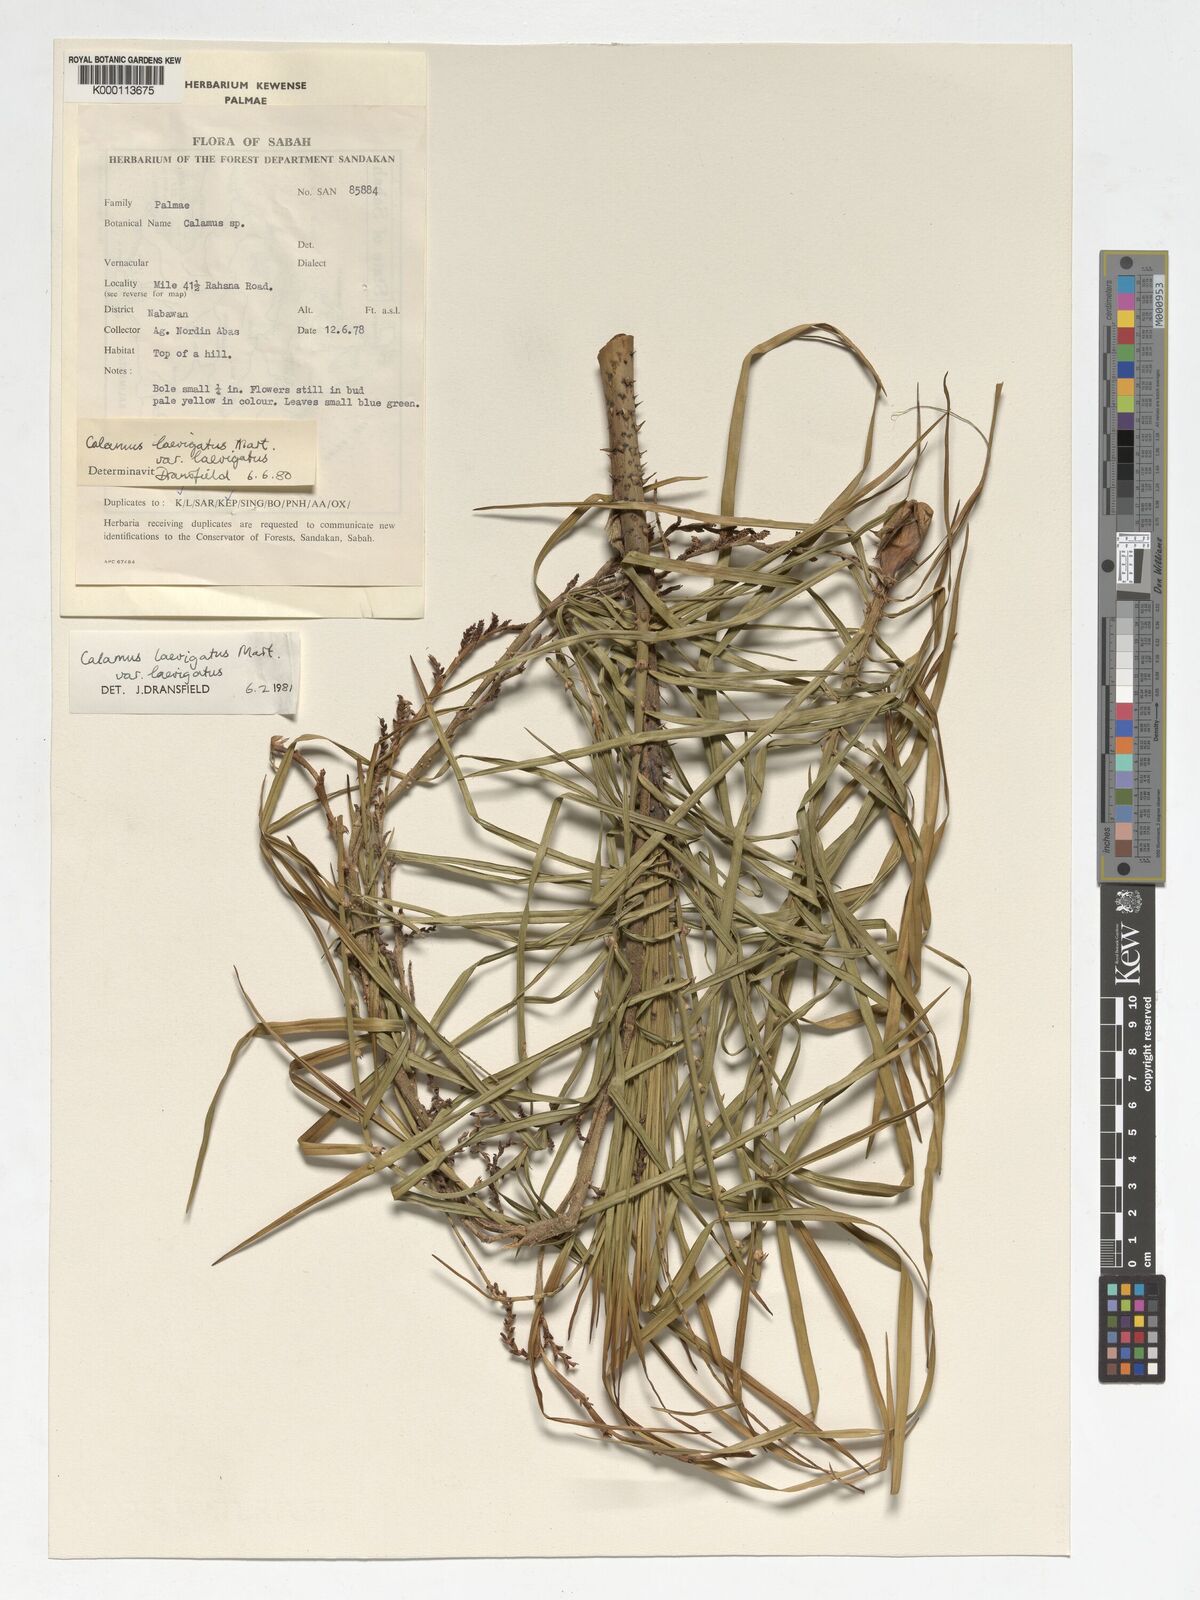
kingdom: Plantae
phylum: Tracheophyta
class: Liliopsida
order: Arecales
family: Arecaceae
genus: Calamus
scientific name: Calamus
